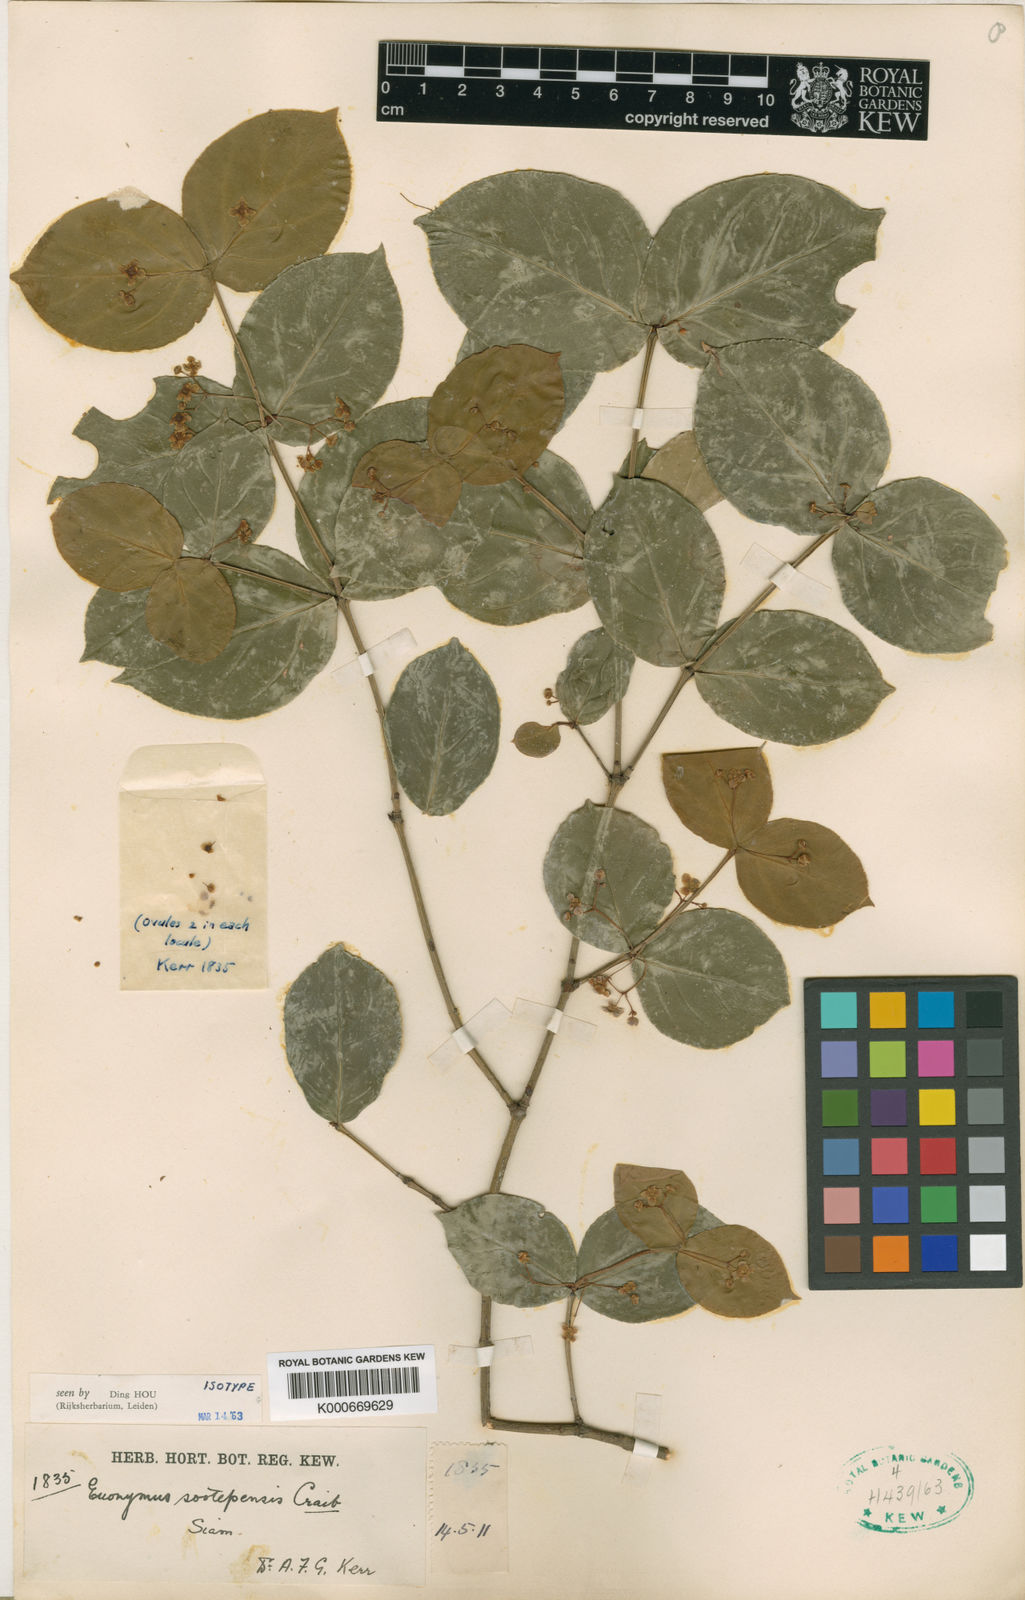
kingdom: Plantae
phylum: Tracheophyta
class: Magnoliopsida
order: Celastrales
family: Celastraceae
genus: Euonymus
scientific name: Euonymus sootepensis
